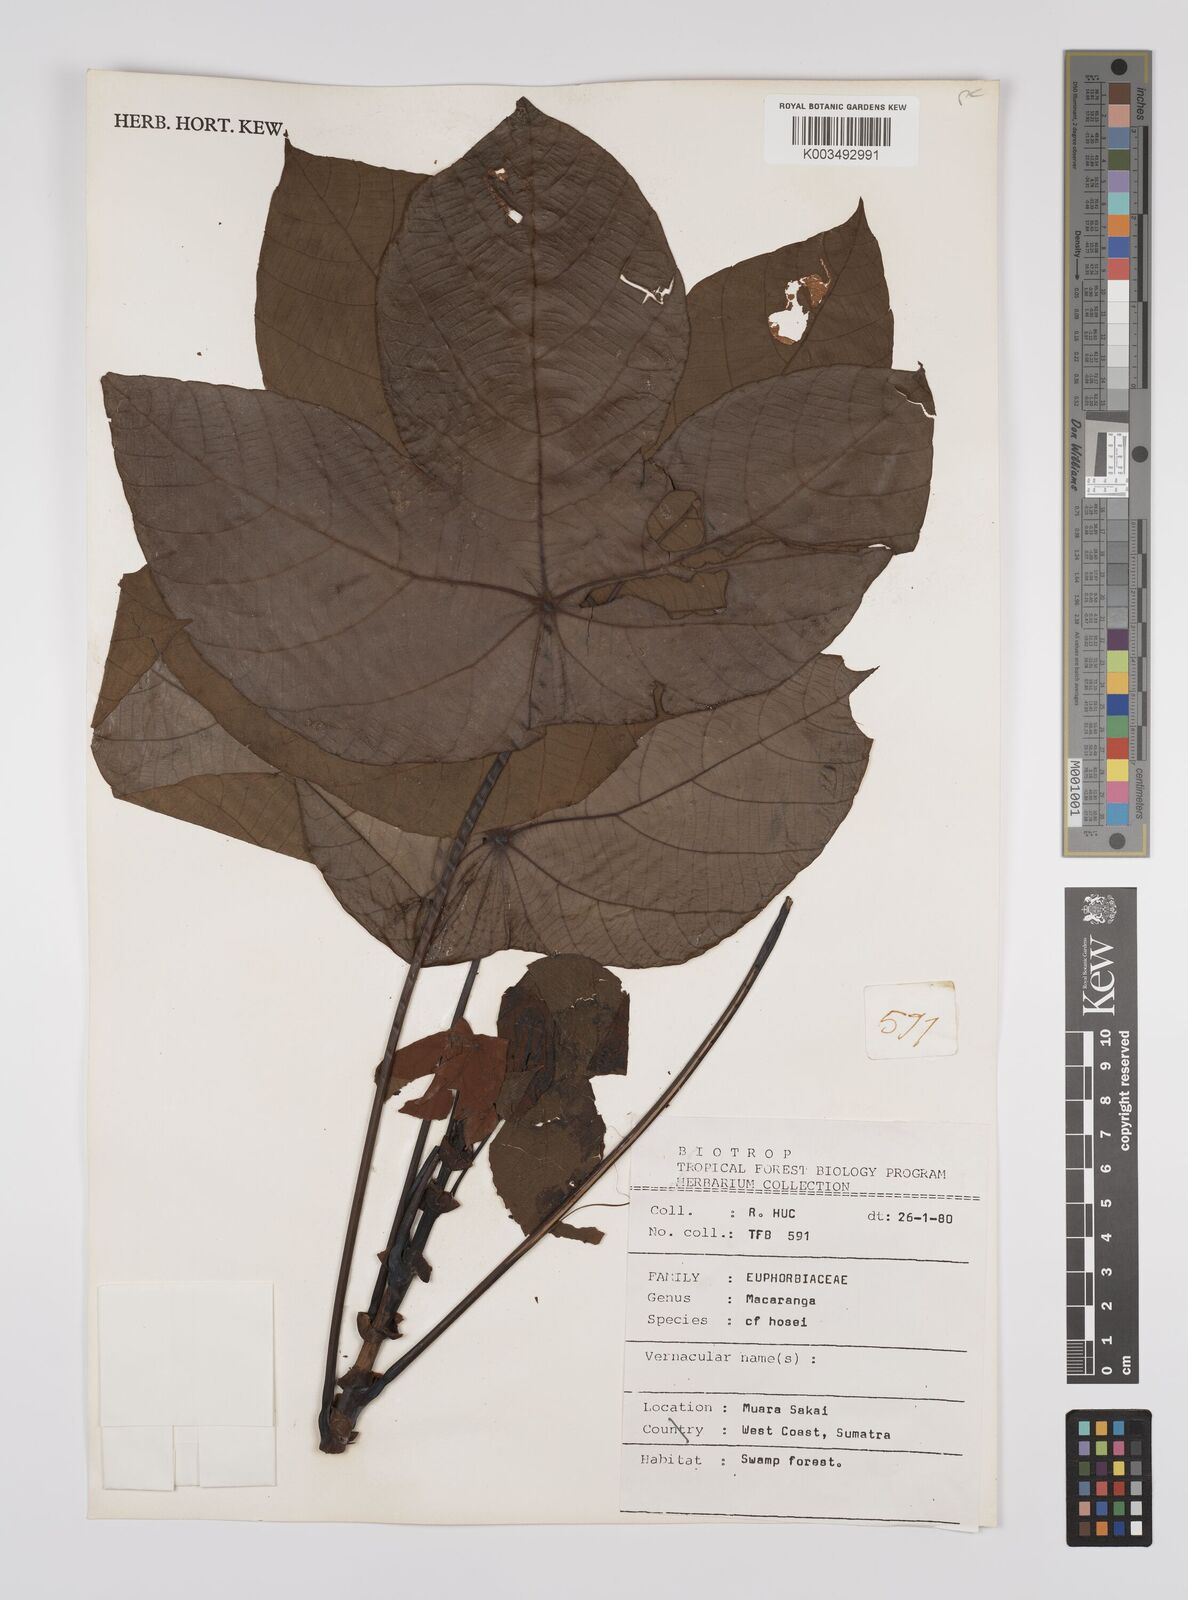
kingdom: Plantae
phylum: Tracheophyta
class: Magnoliopsida
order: Malpighiales
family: Euphorbiaceae
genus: Macaranga
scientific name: Macaranga hosei
